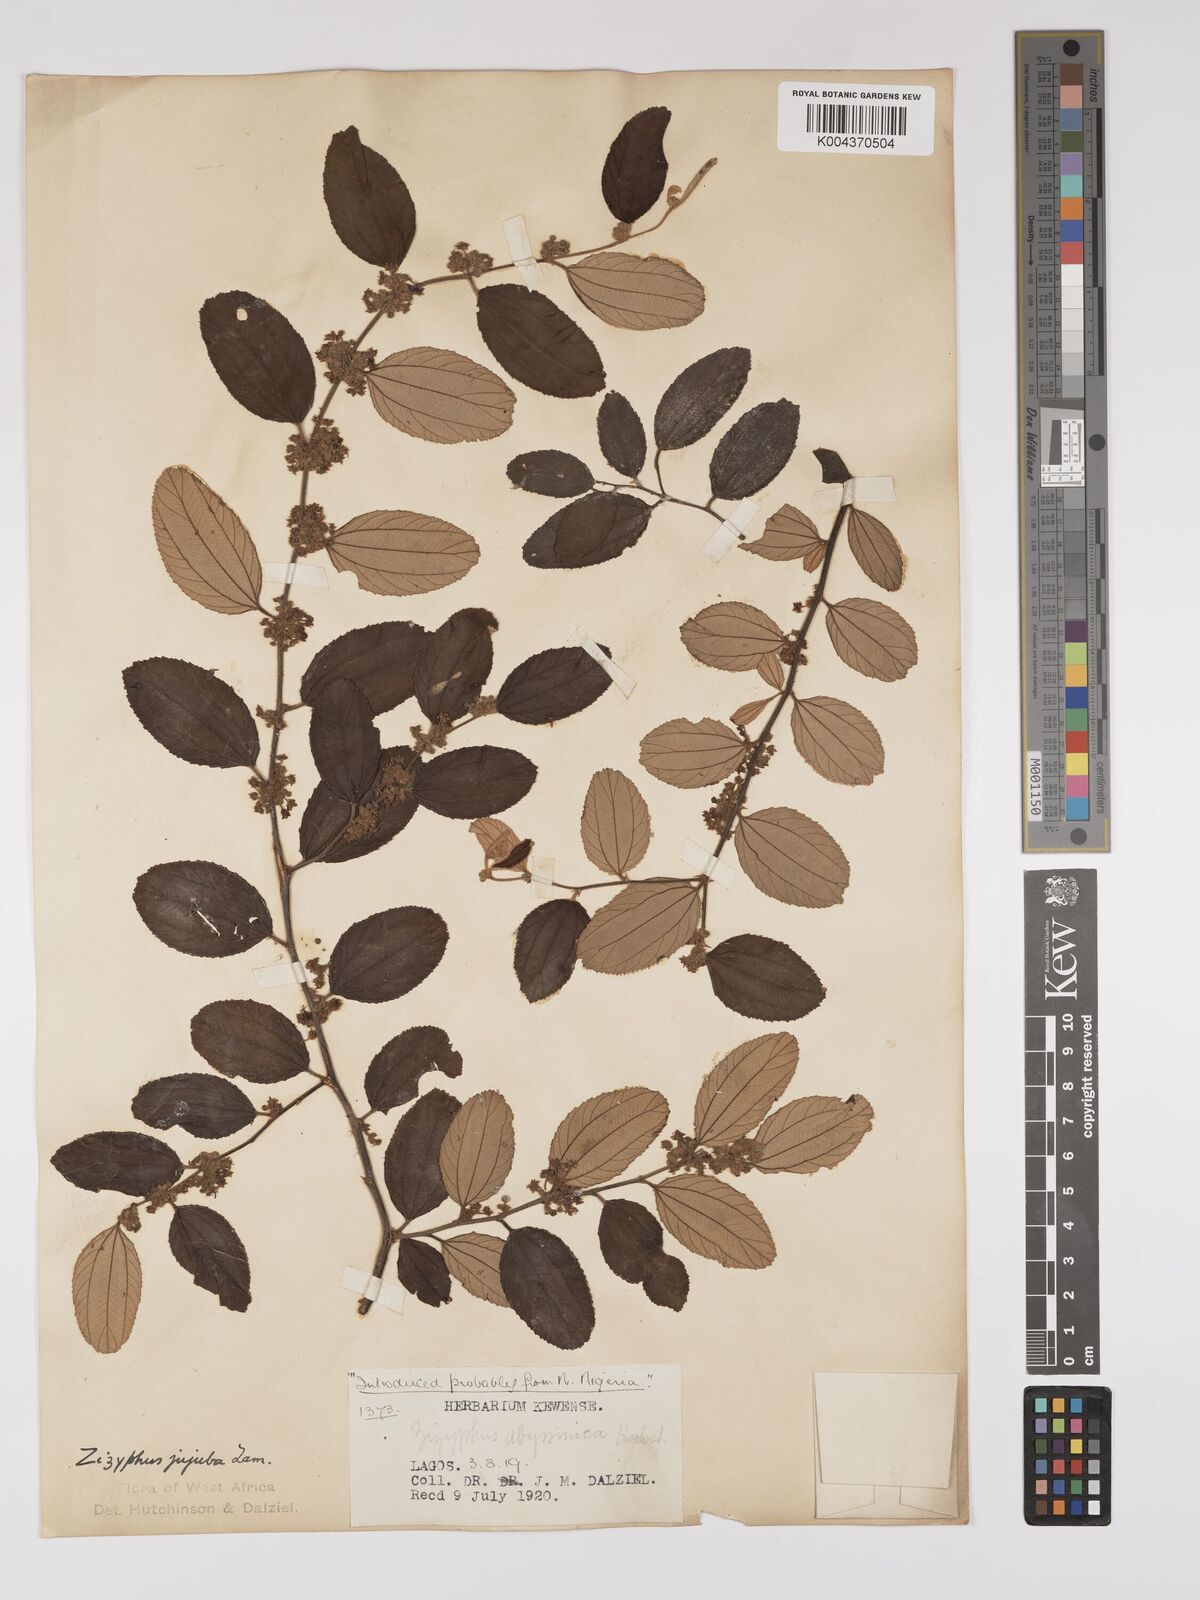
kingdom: Plantae
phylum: Tracheophyta
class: Magnoliopsida
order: Rosales
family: Rhamnaceae
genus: Ziziphus
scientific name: Ziziphus mauritiana
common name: Indian jujube
